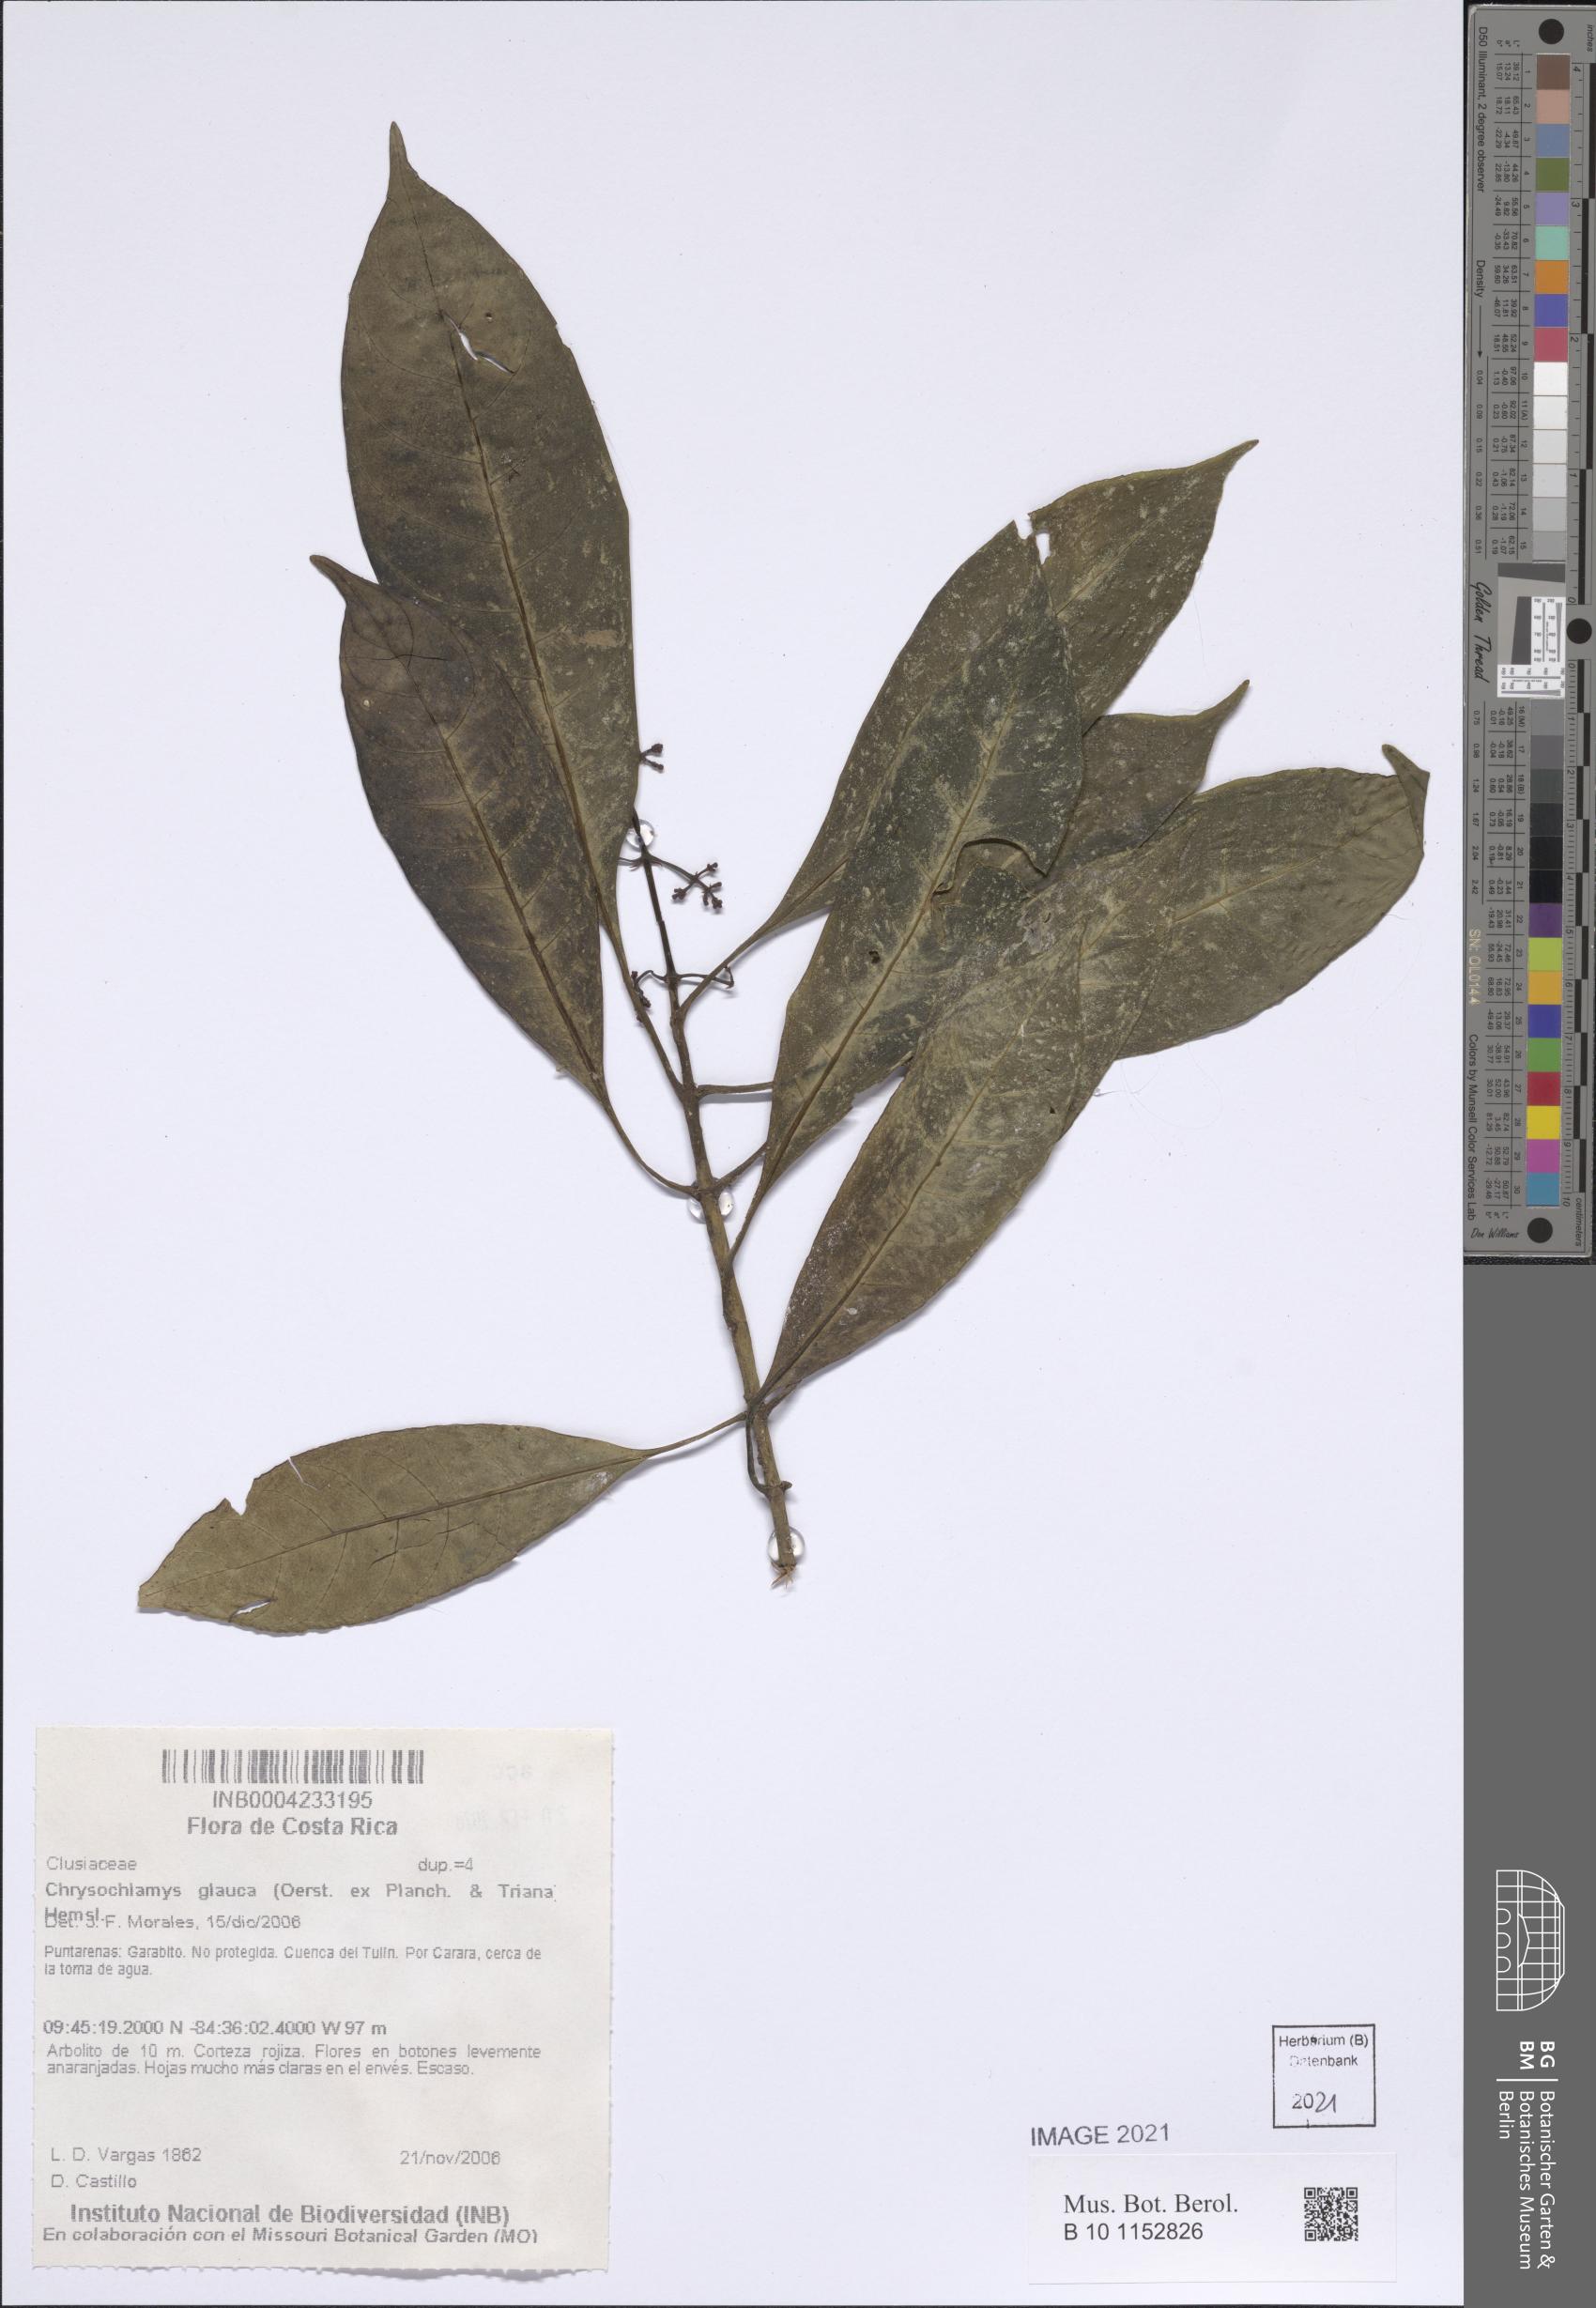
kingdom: Plantae
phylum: Tracheophyta
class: Magnoliopsida
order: Malpighiales
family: Clusiaceae
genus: Chrysochlamys
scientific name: Chrysochlamys glauca
